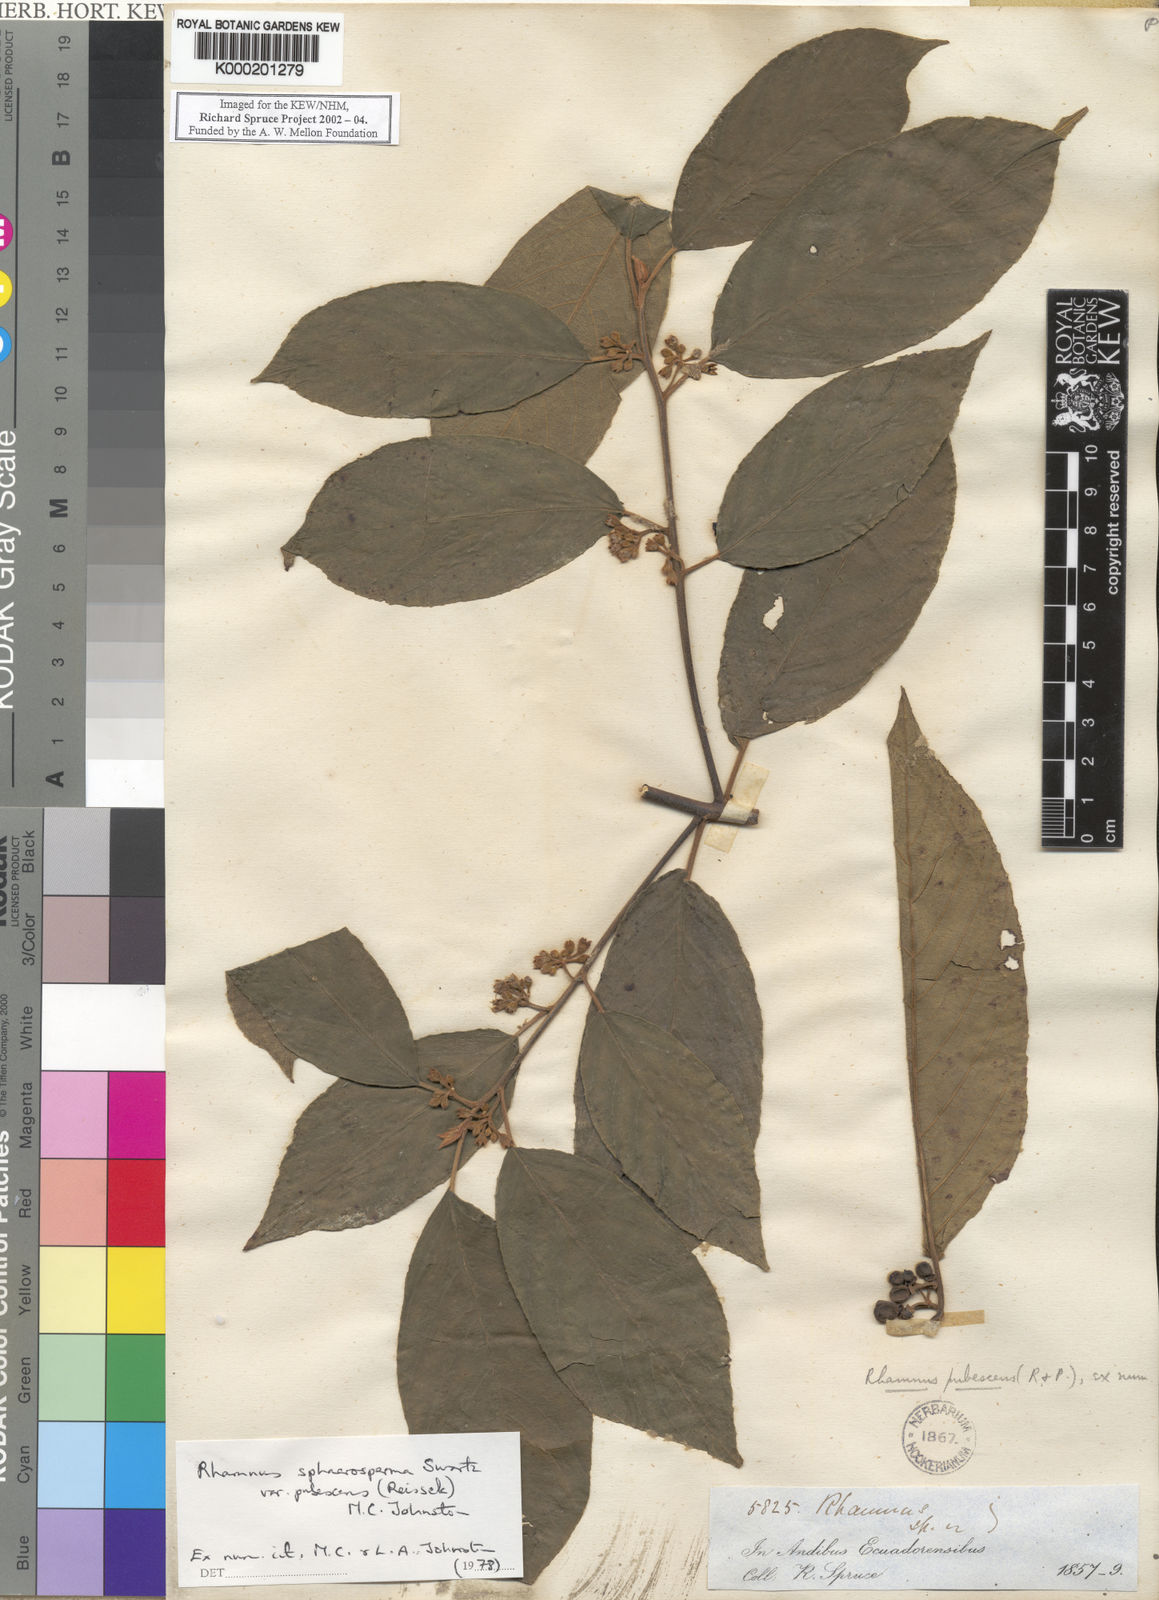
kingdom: Plantae
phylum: Tracheophyta
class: Magnoliopsida
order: Rosales
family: Rhamnaceae
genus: Frangula
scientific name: Frangula
